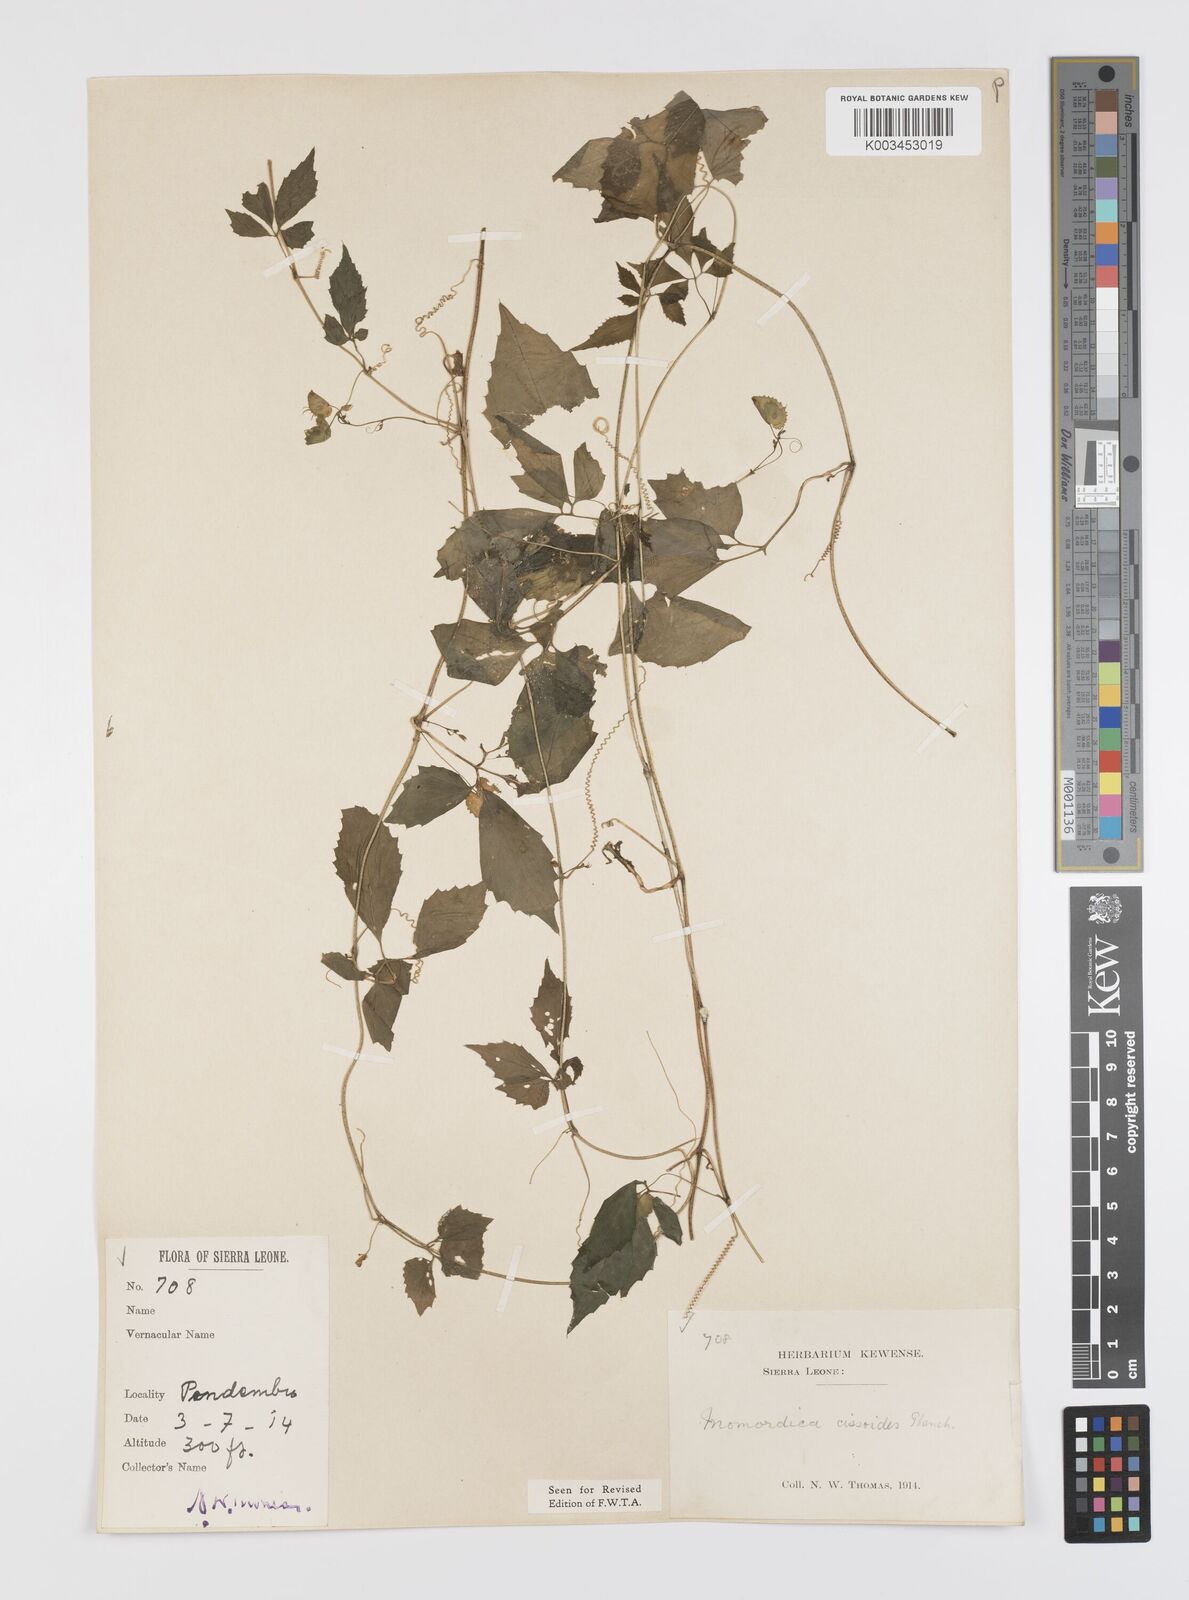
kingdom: Plantae
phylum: Tracheophyta
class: Magnoliopsida
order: Cucurbitales
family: Cucurbitaceae
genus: Momordica
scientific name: Momordica cissoides
